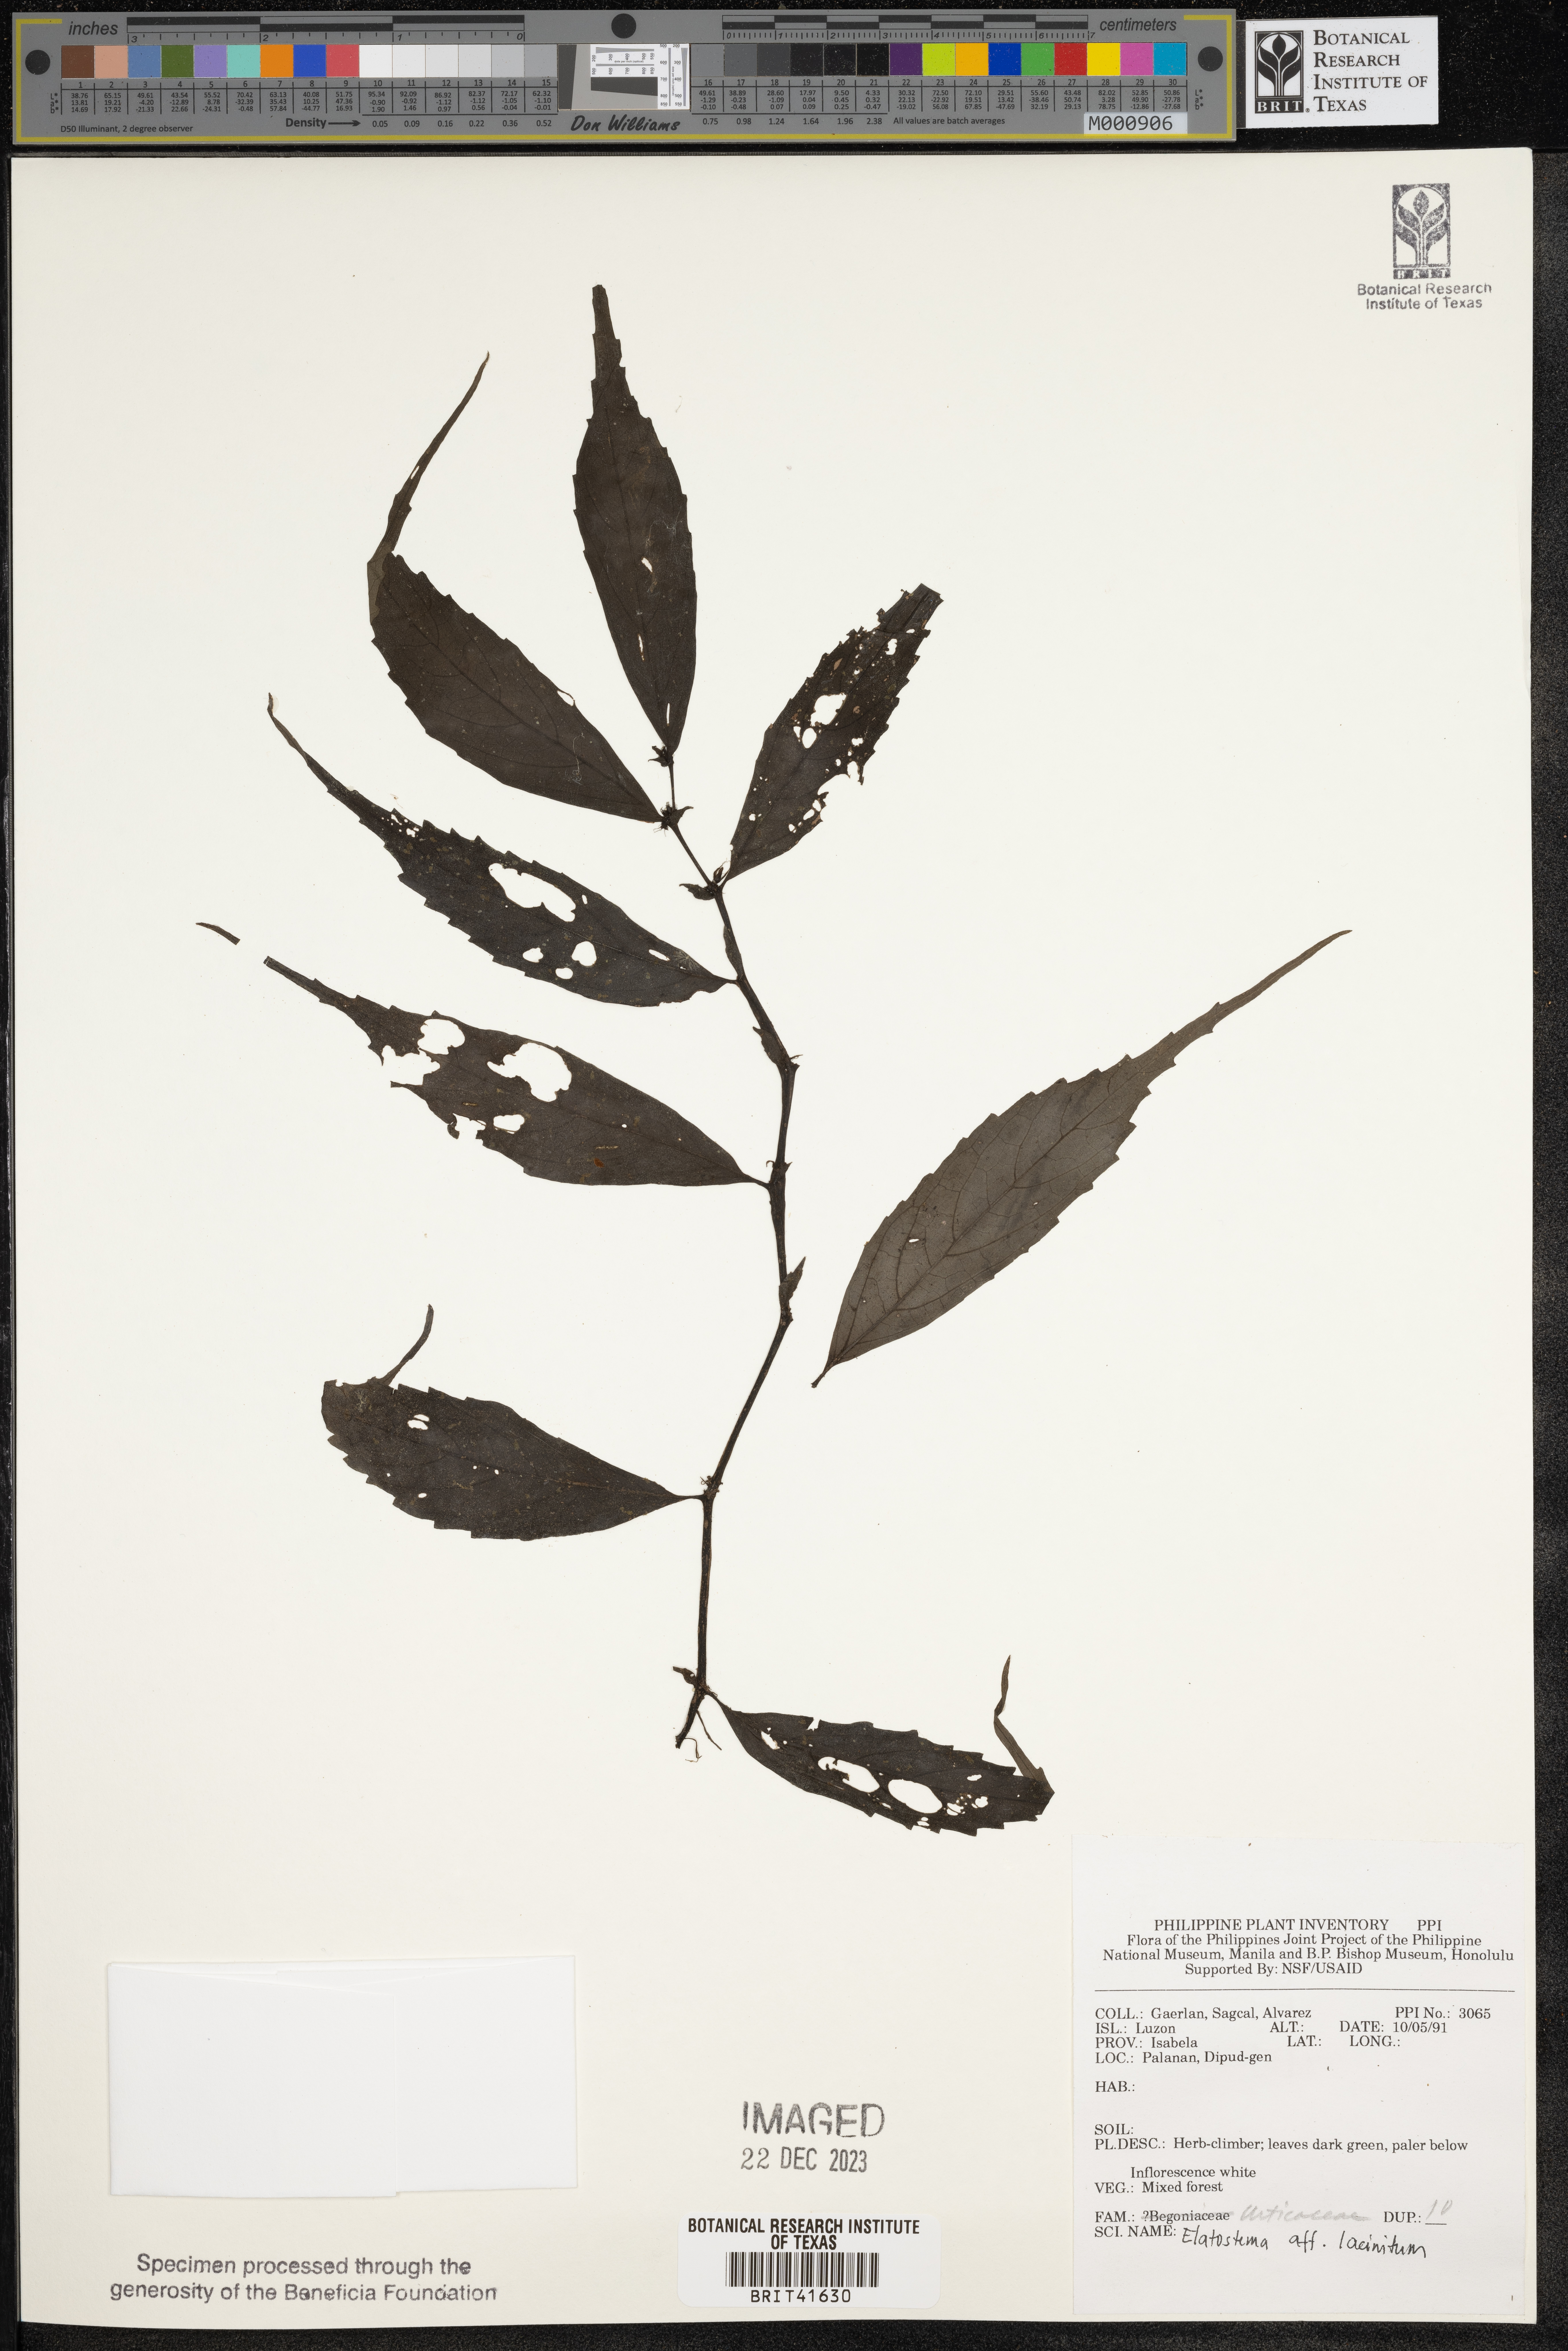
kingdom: Plantae
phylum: Tracheophyta
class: Magnoliopsida
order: Rosales
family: Urticaceae
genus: Elatostema
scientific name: Elatostema sinuatum
